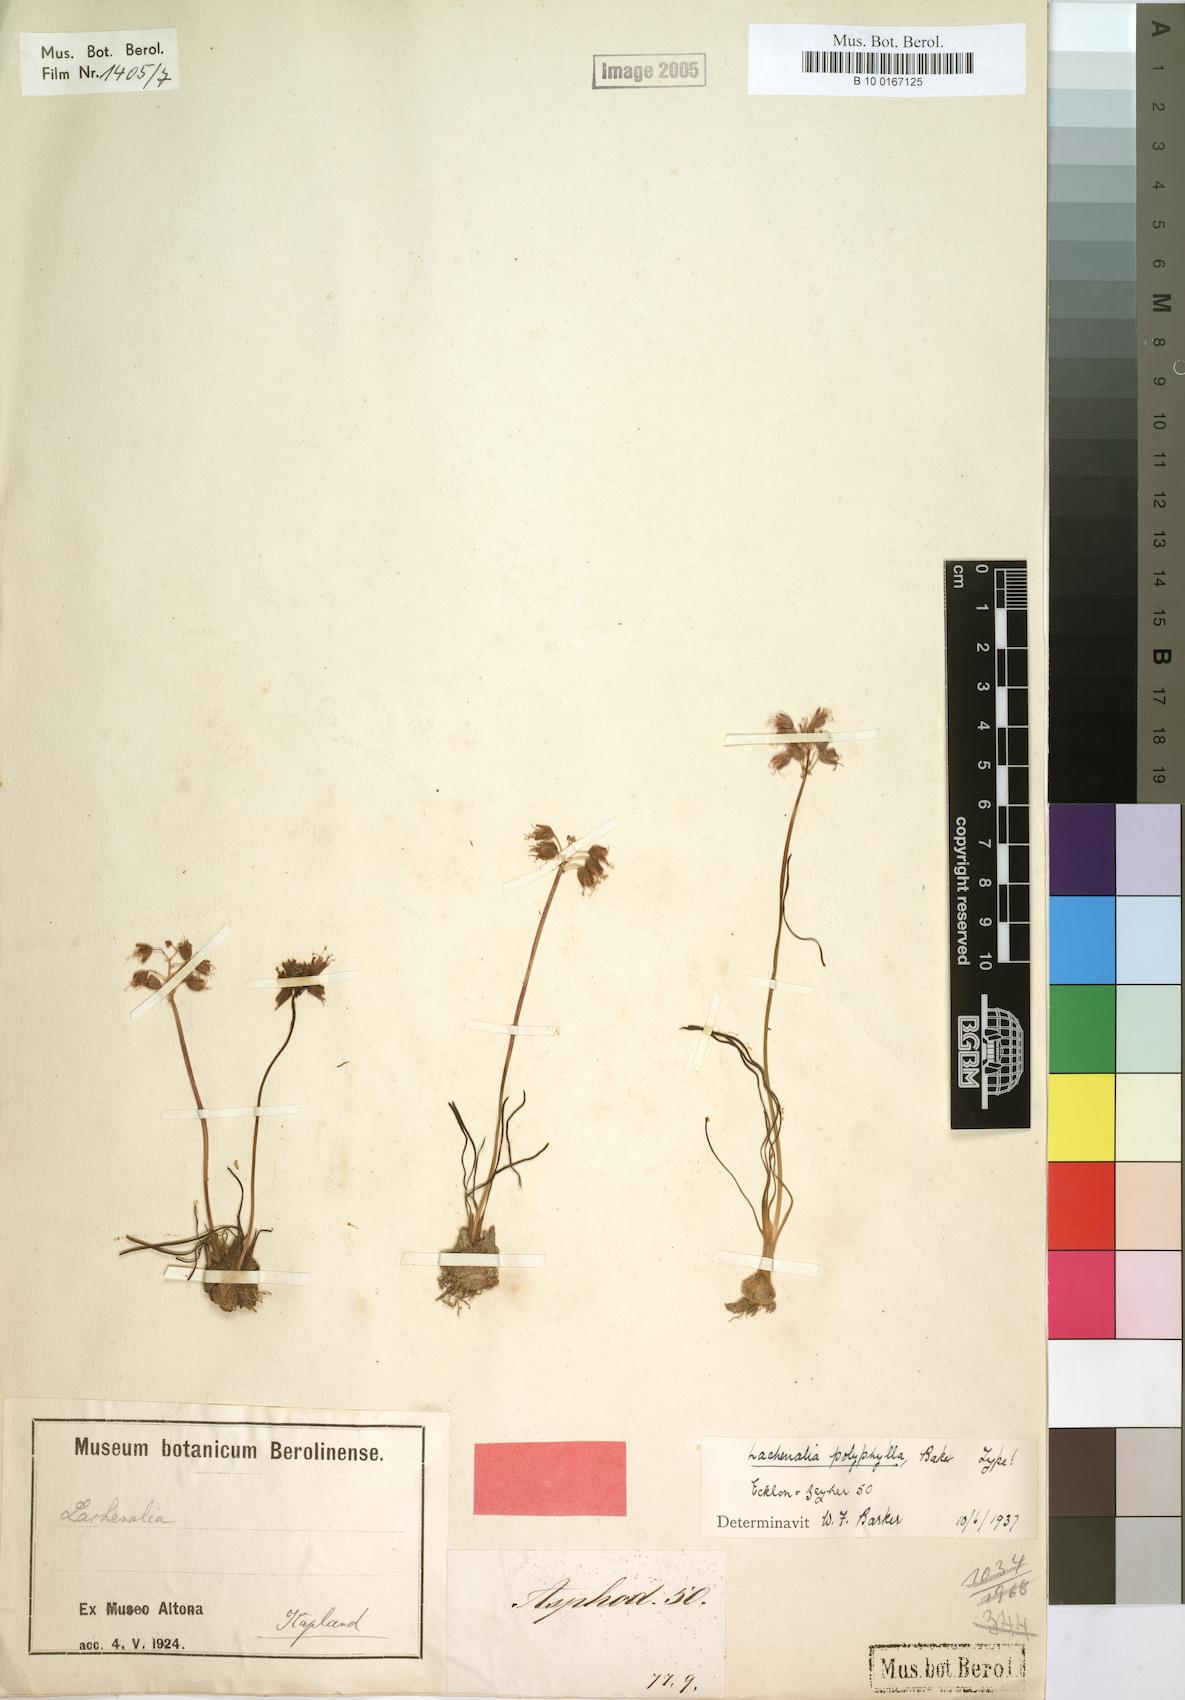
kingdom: Plantae
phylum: Tracheophyta
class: Liliopsida
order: Asparagales
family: Asparagaceae
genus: Lachenalia
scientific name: Lachenalia polyphylla
